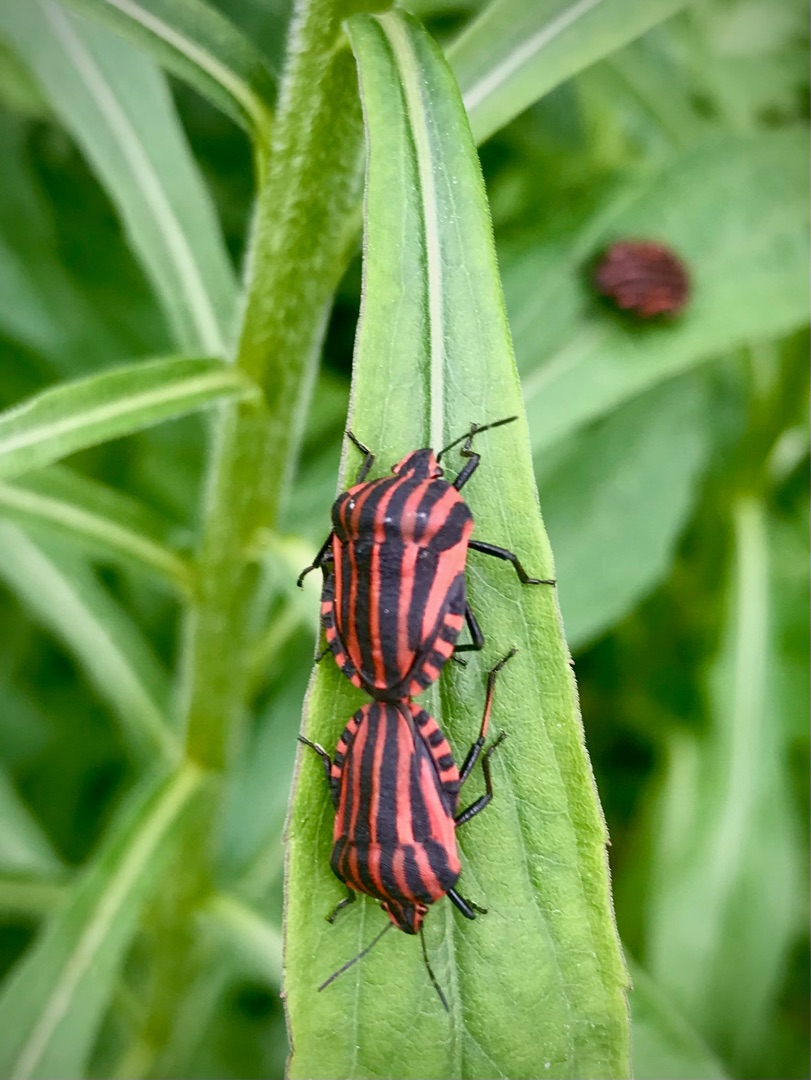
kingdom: Animalia
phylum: Arthropoda
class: Insecta
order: Hemiptera
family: Pentatomidae
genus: Graphosoma
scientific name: Graphosoma italicum
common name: Stribetæge
